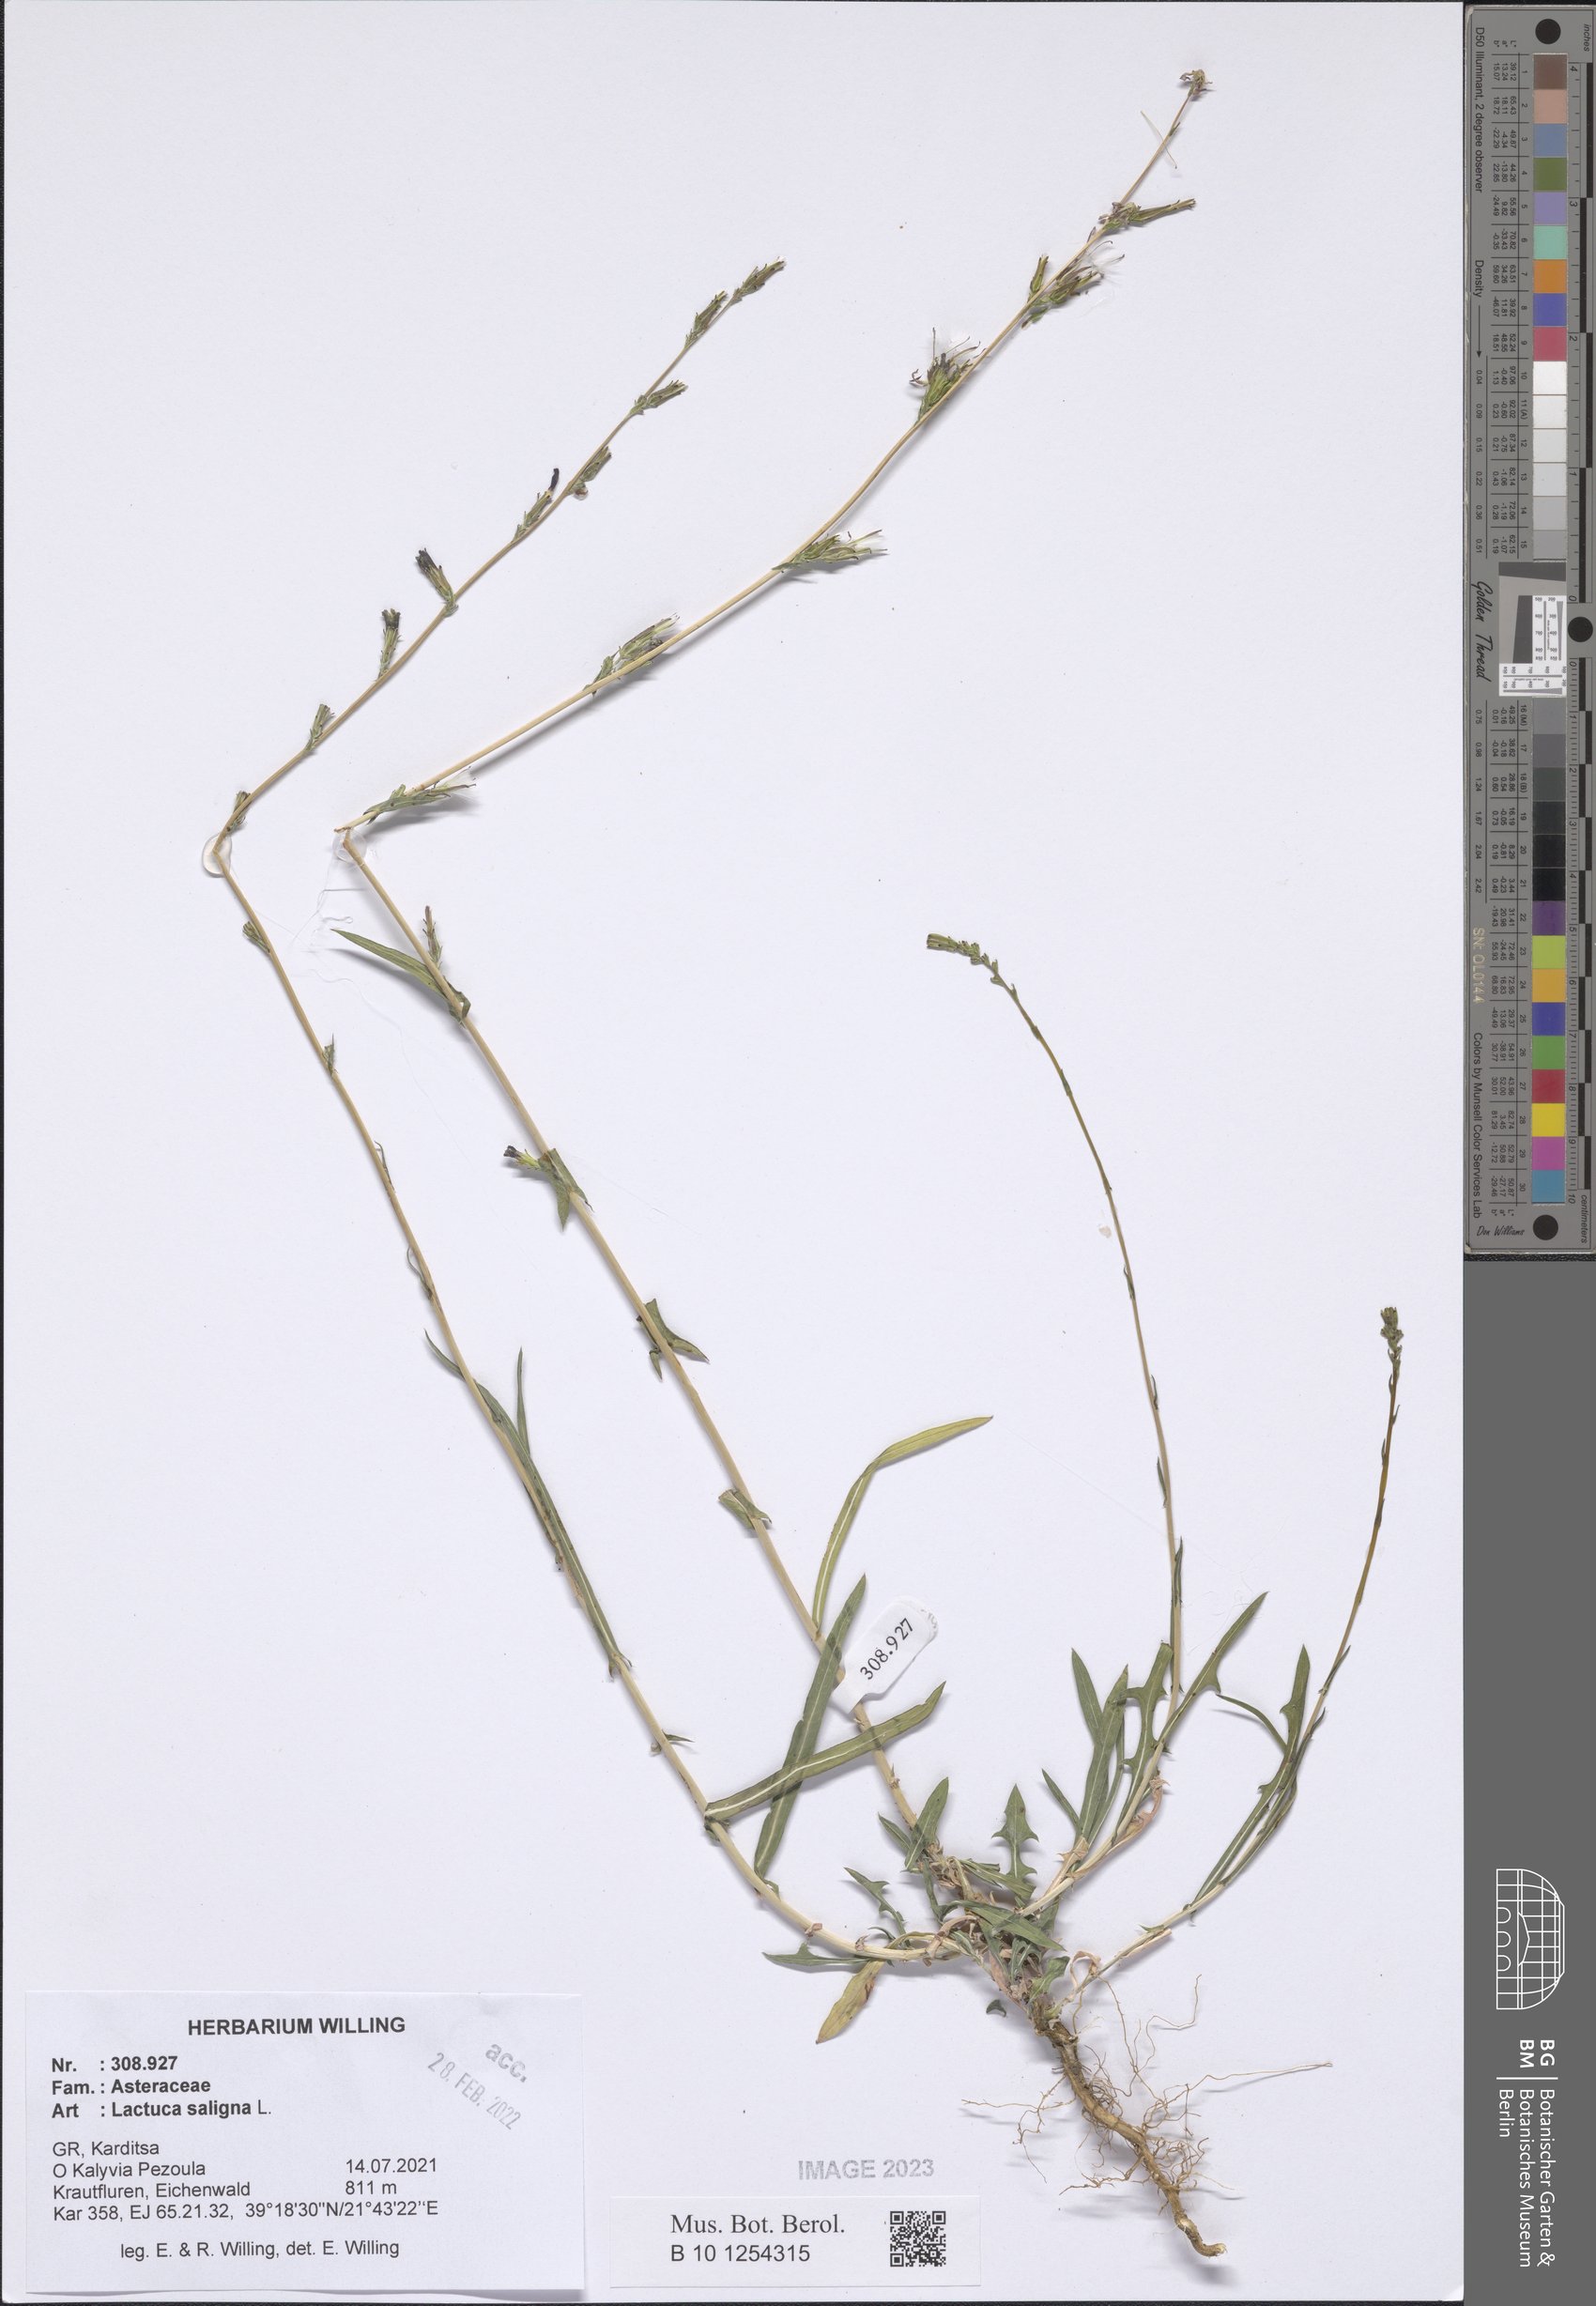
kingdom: Plantae
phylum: Tracheophyta
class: Magnoliopsida
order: Asterales
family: Asteraceae
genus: Lactuca
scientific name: Lactuca saligna
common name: Wild lettuce
